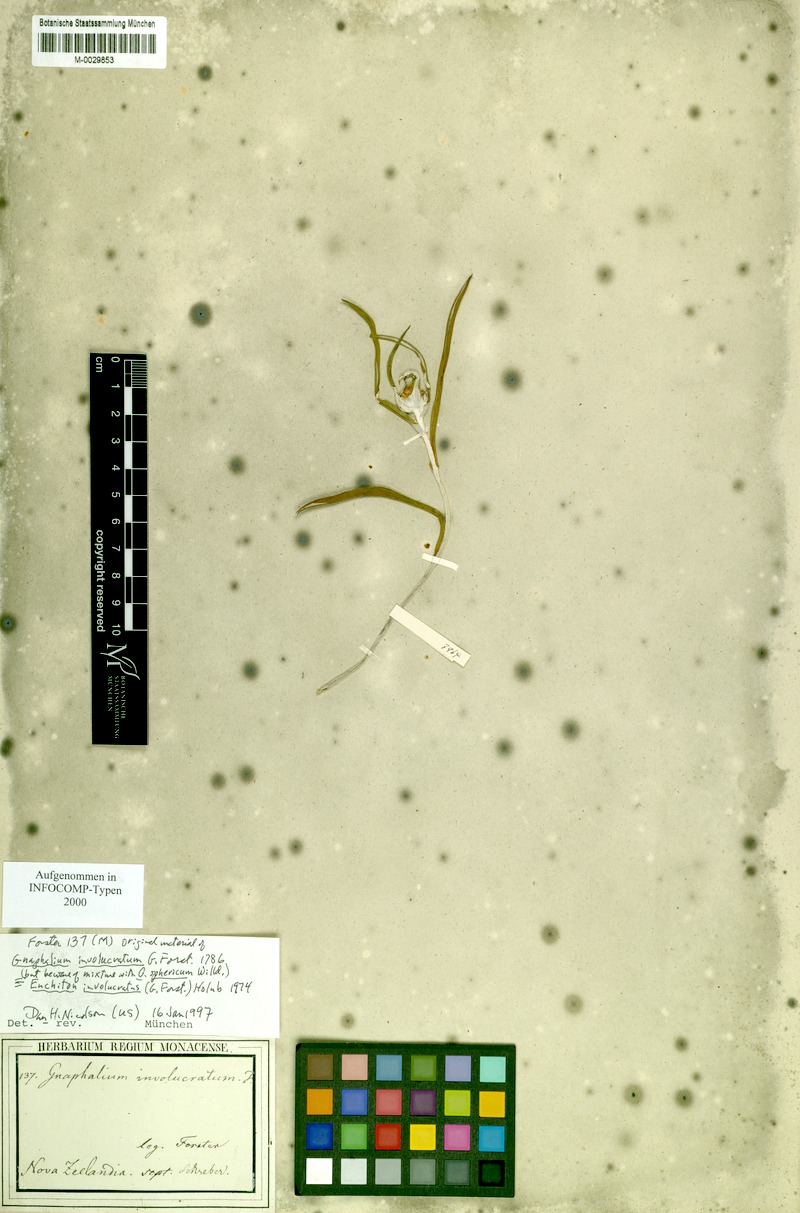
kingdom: Plantae
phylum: Tracheophyta
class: Magnoliopsida
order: Asterales
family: Asteraceae
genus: Euchiton
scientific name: Euchiton involucratus
